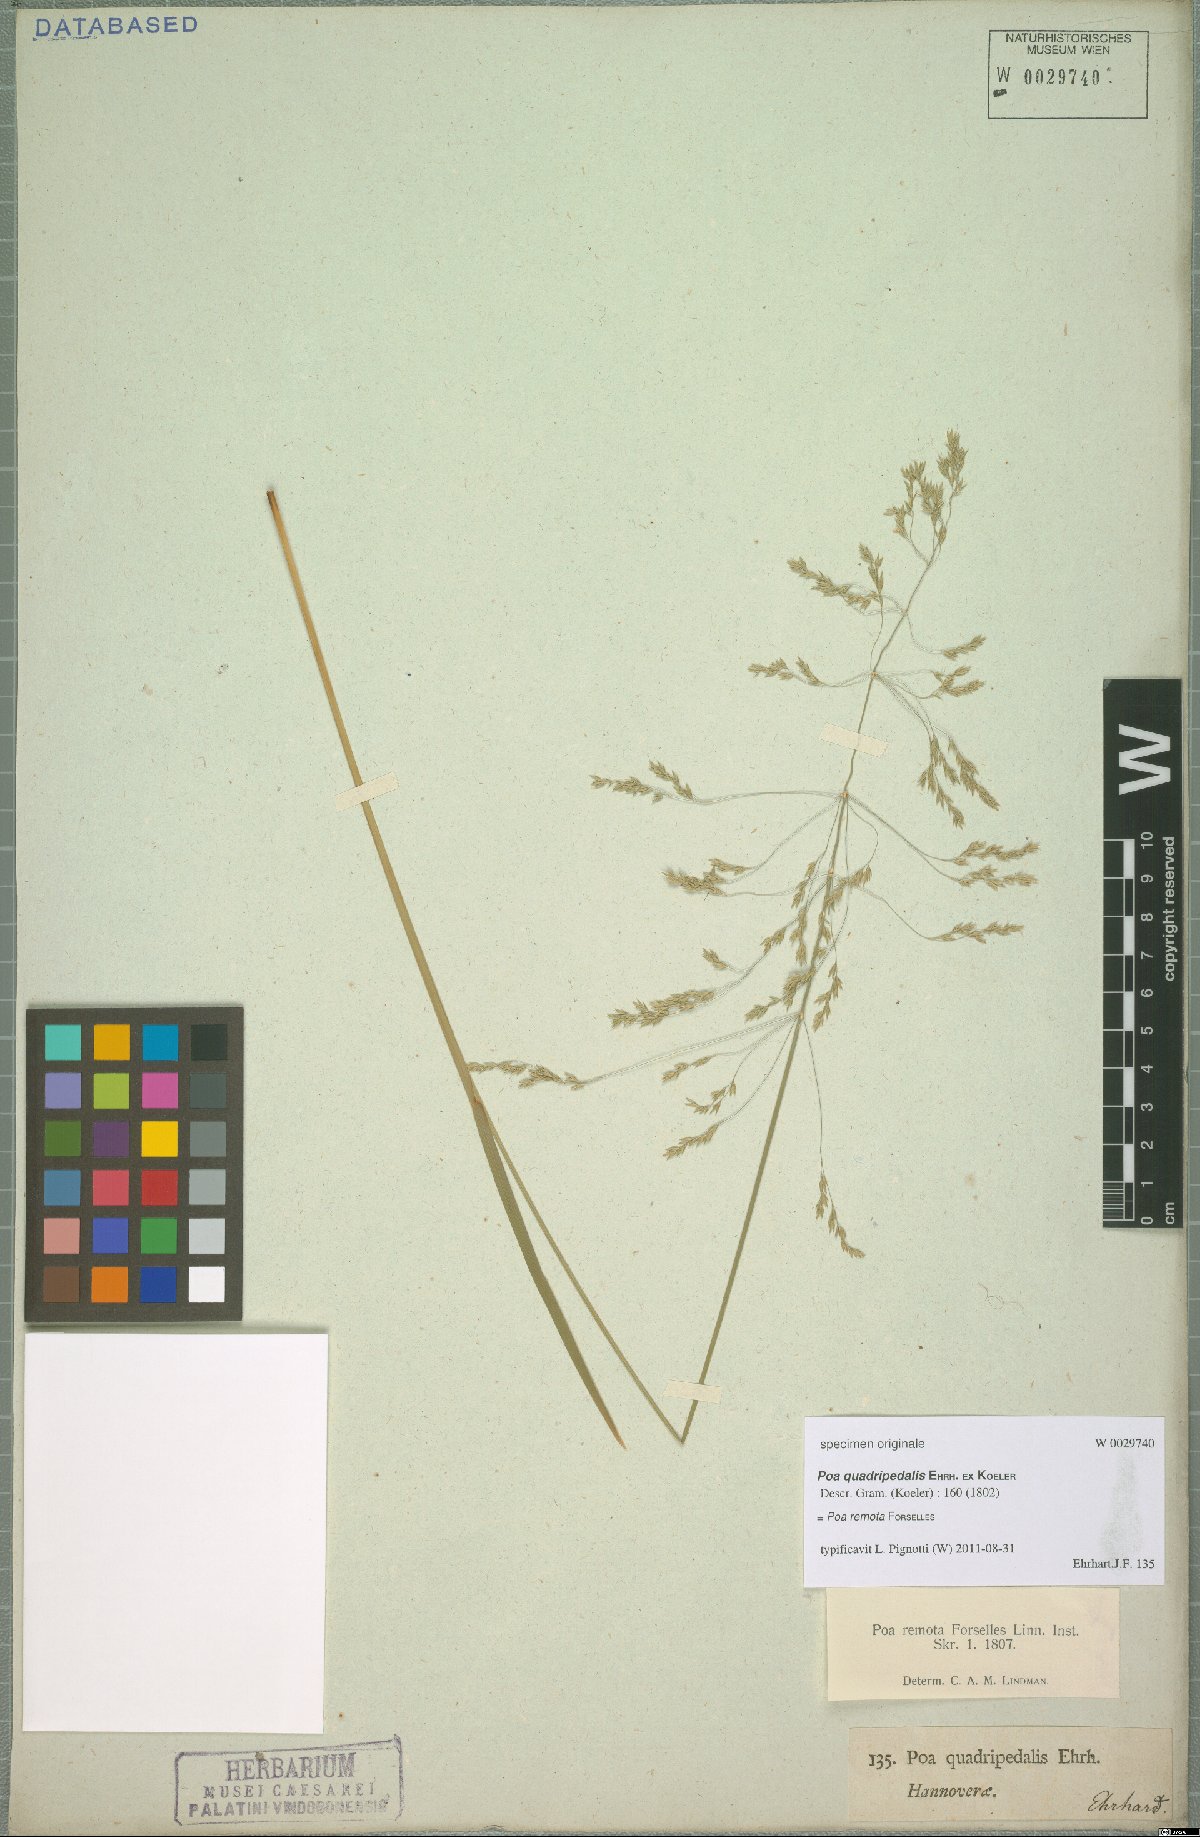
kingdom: Plantae
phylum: Tracheophyta
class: Liliopsida
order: Poales
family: Poaceae
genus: Poa
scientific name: Poa remota
